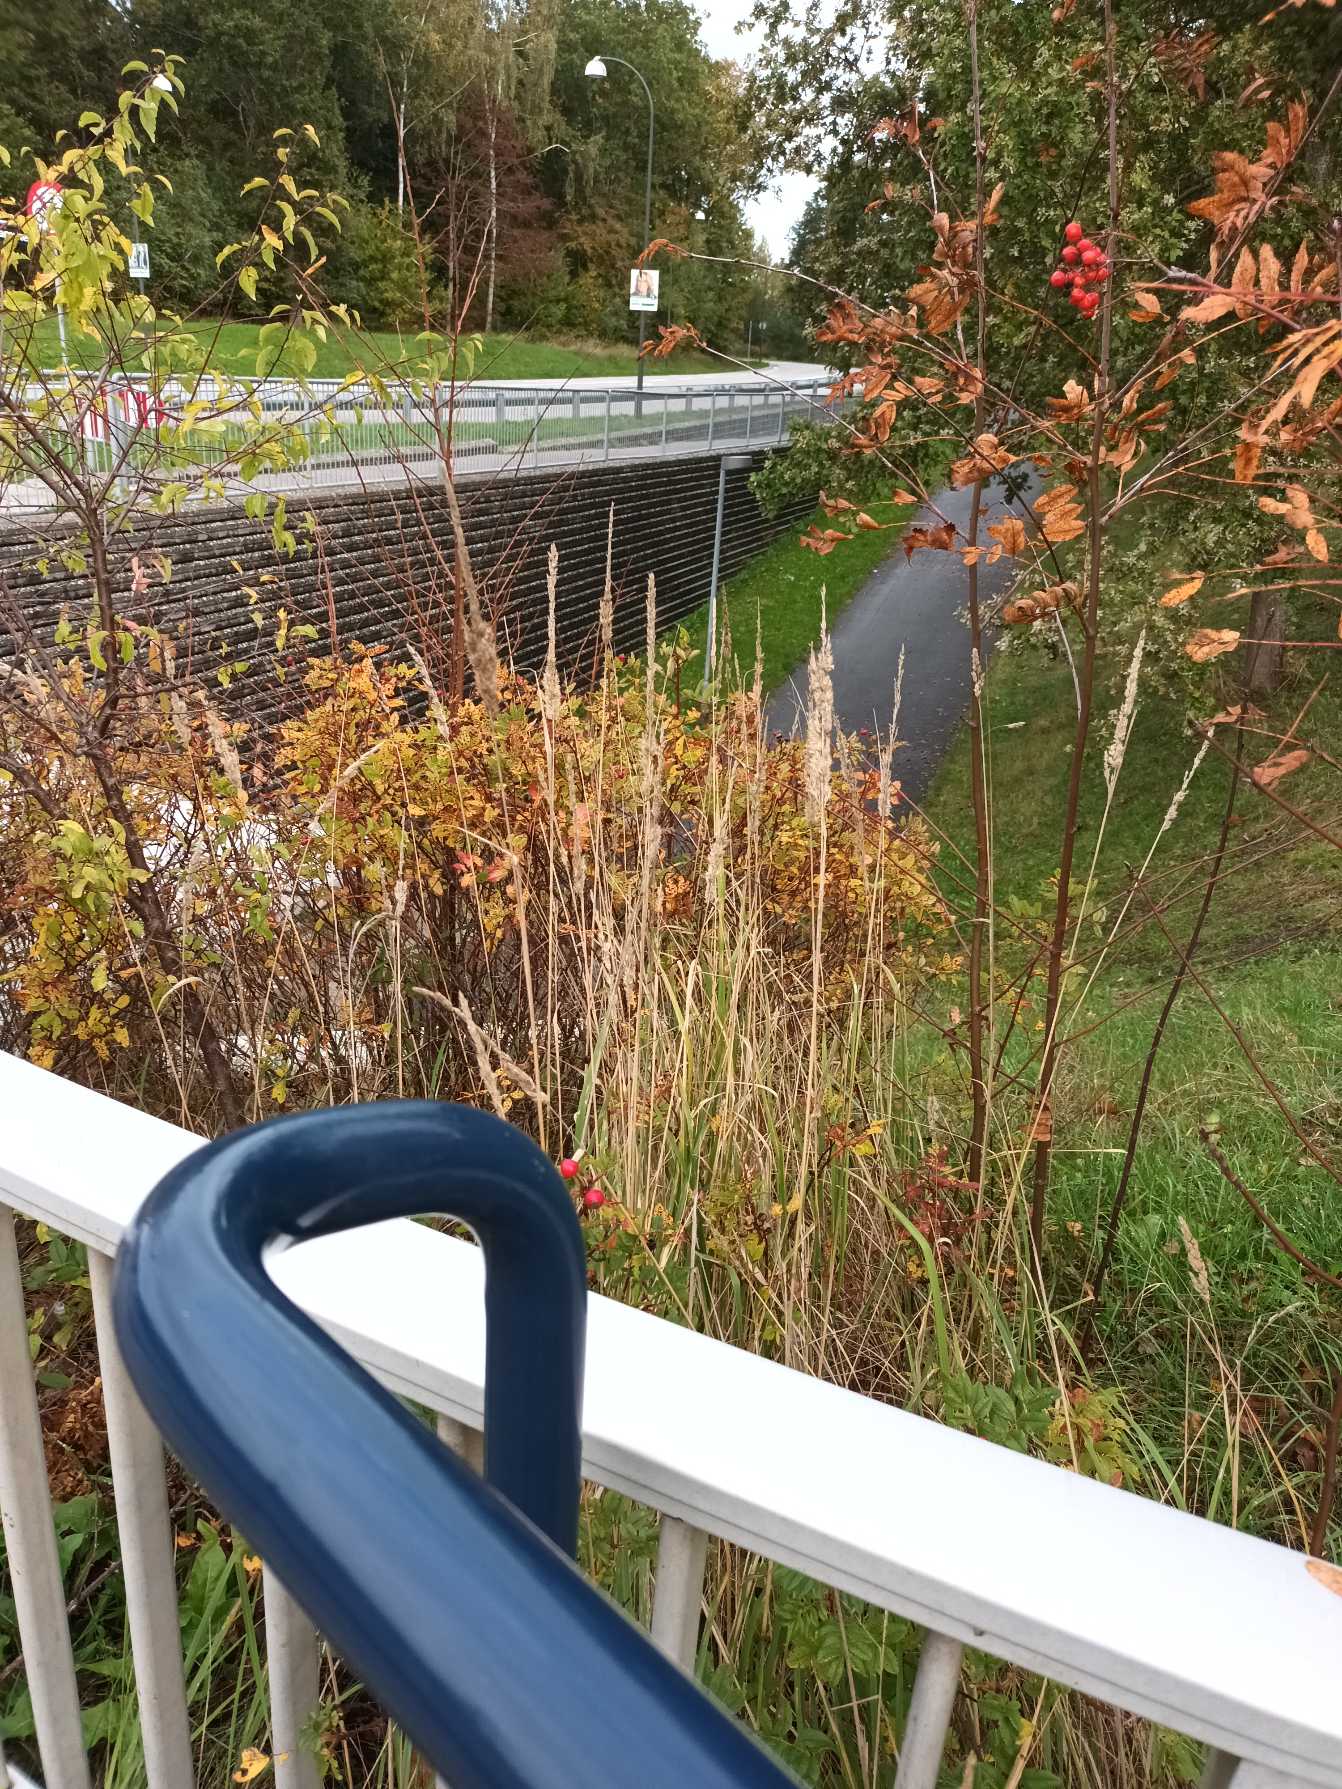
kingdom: Plantae
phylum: Tracheophyta
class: Liliopsida
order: Poales
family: Poaceae
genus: Calamagrostis
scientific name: Calamagrostis epigejos
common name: Bjerg-rørhvene
